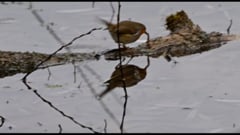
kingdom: Animalia
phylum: Chordata
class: Aves
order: Passeriformes
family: Muscicapidae
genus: Erithacus
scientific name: Erithacus rubecula
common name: European robin
